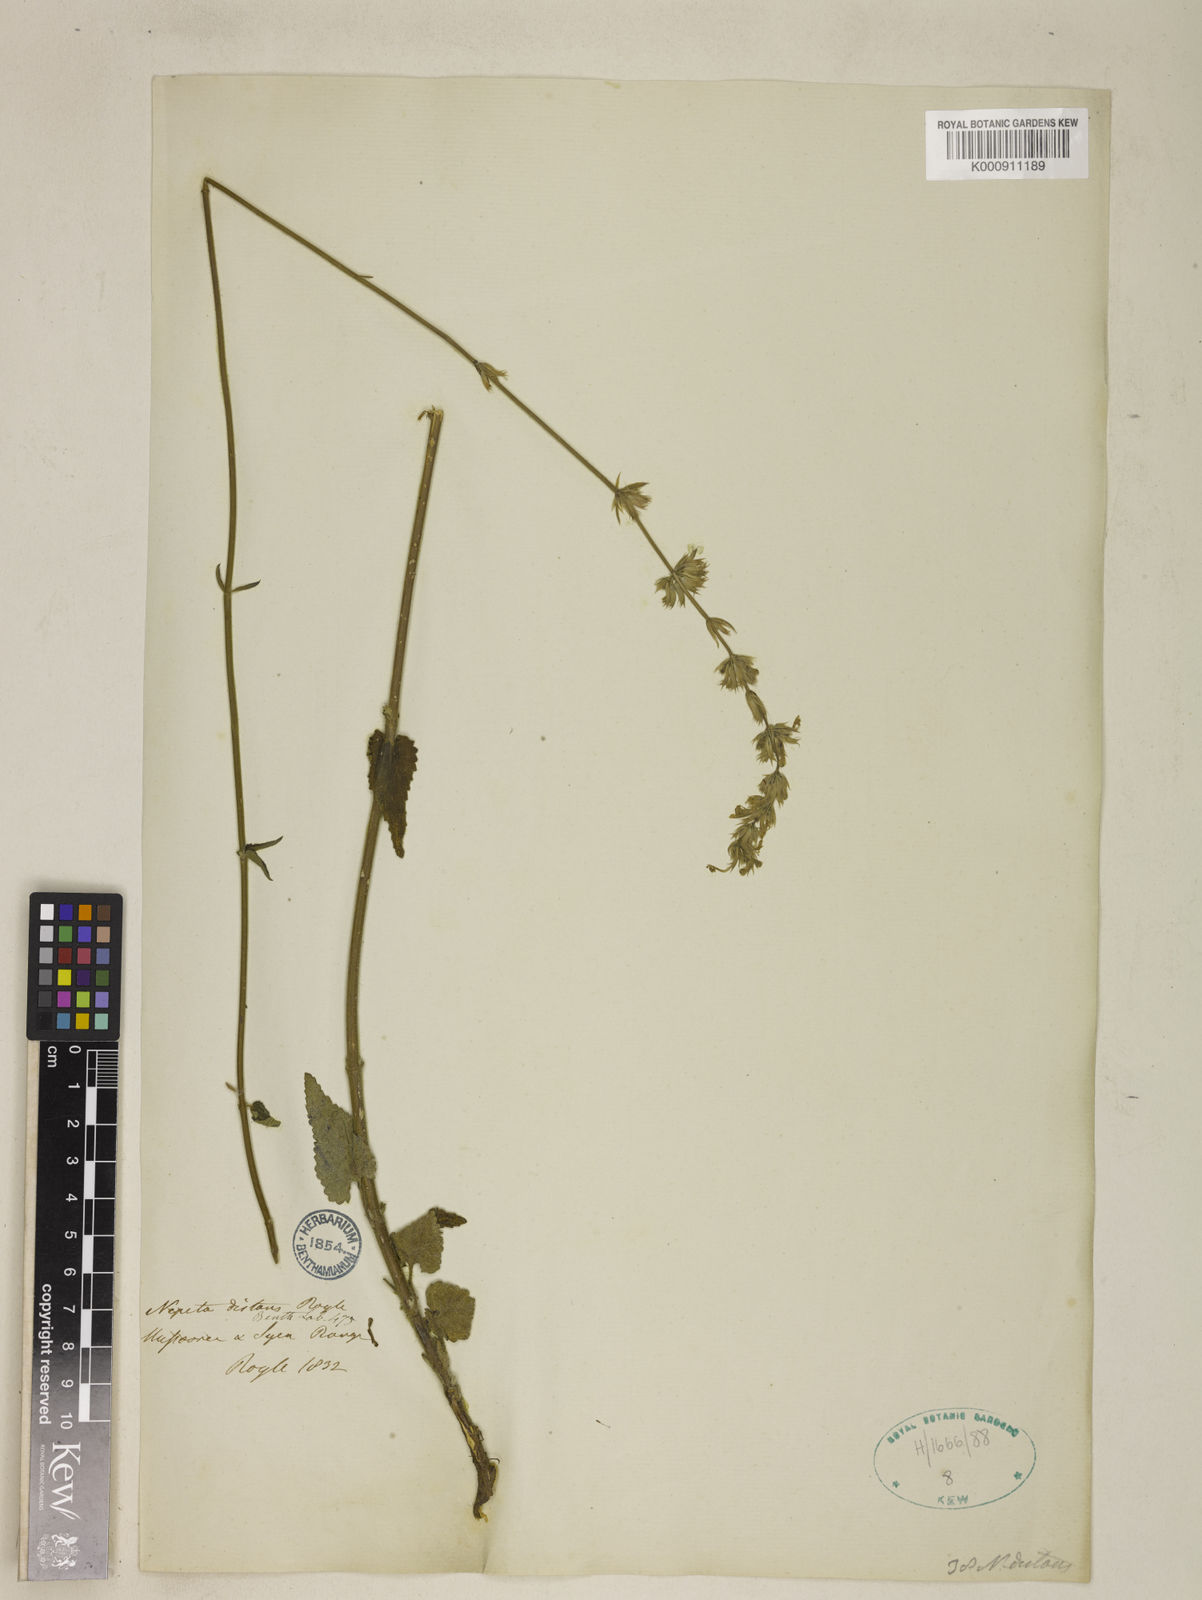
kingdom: Plantae
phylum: Tracheophyta
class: Magnoliopsida
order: Lamiales
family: Lamiaceae
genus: Nepeta
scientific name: Nepeta
